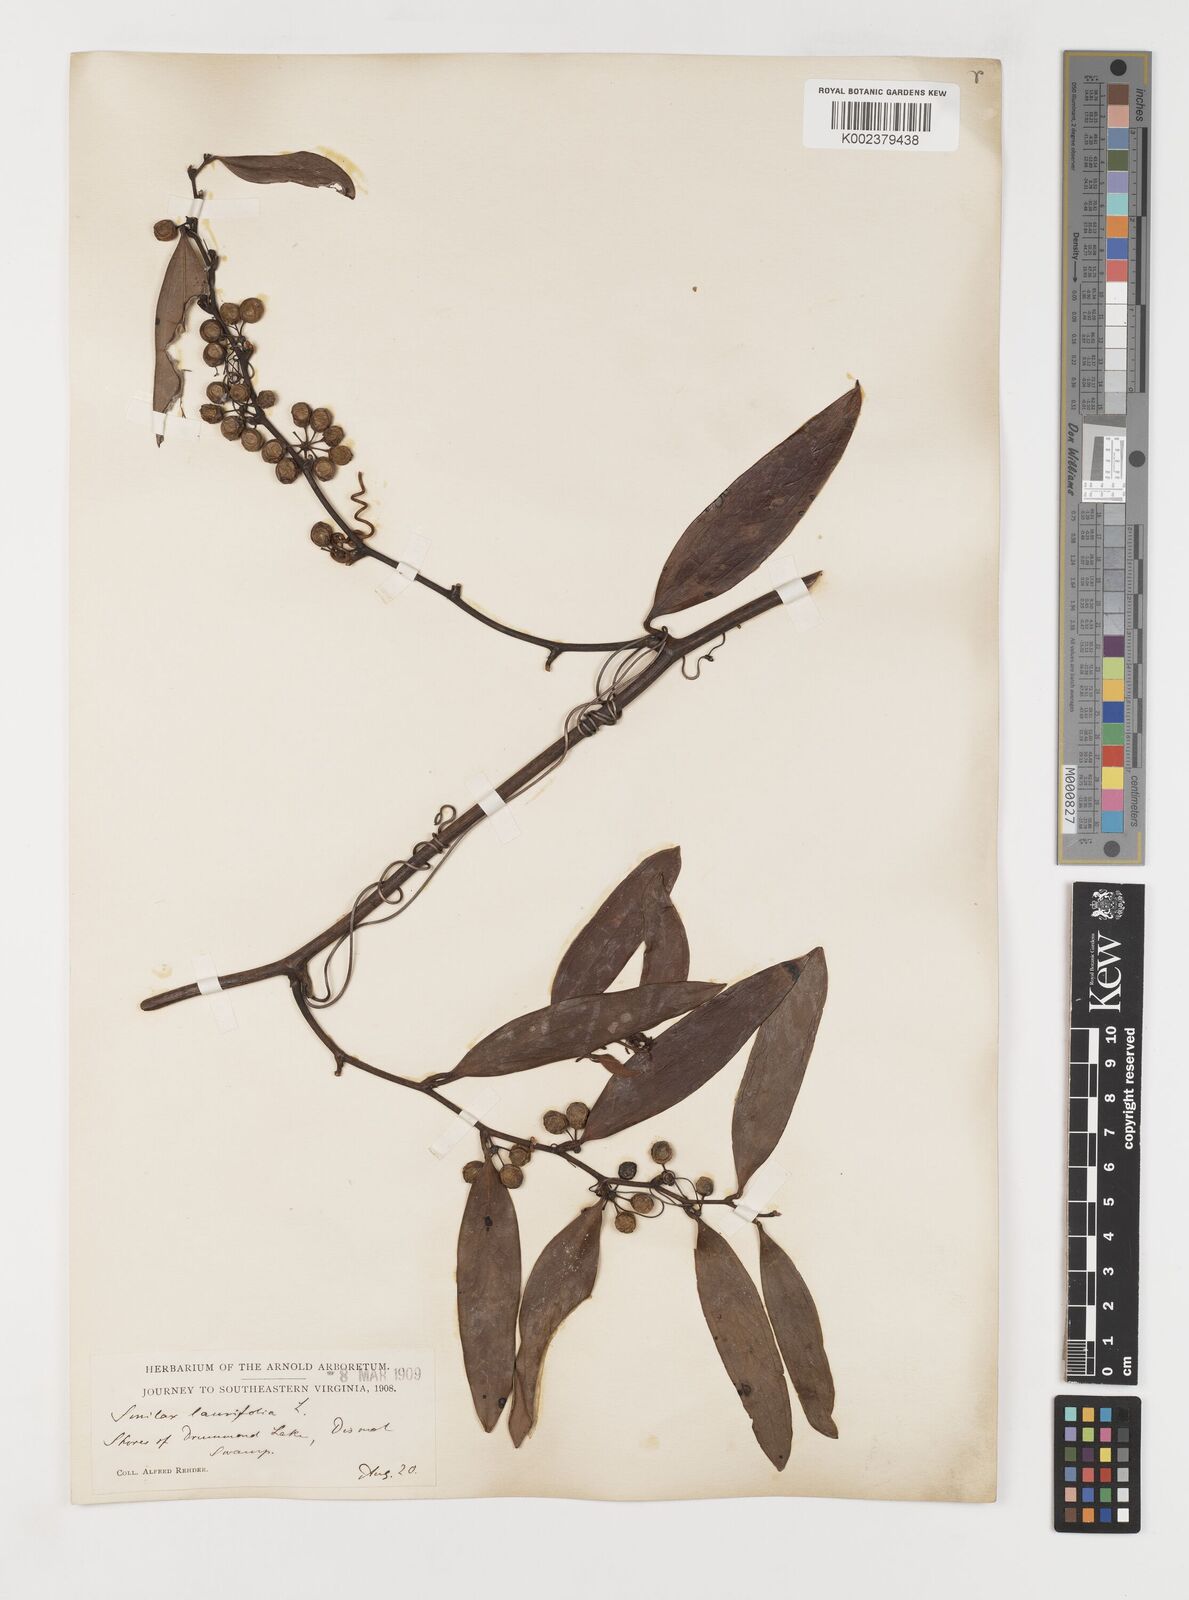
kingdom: Plantae
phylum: Tracheophyta
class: Liliopsida
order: Liliales
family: Smilacaceae
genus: Smilax
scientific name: Smilax laurifolia
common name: Bamboovine
